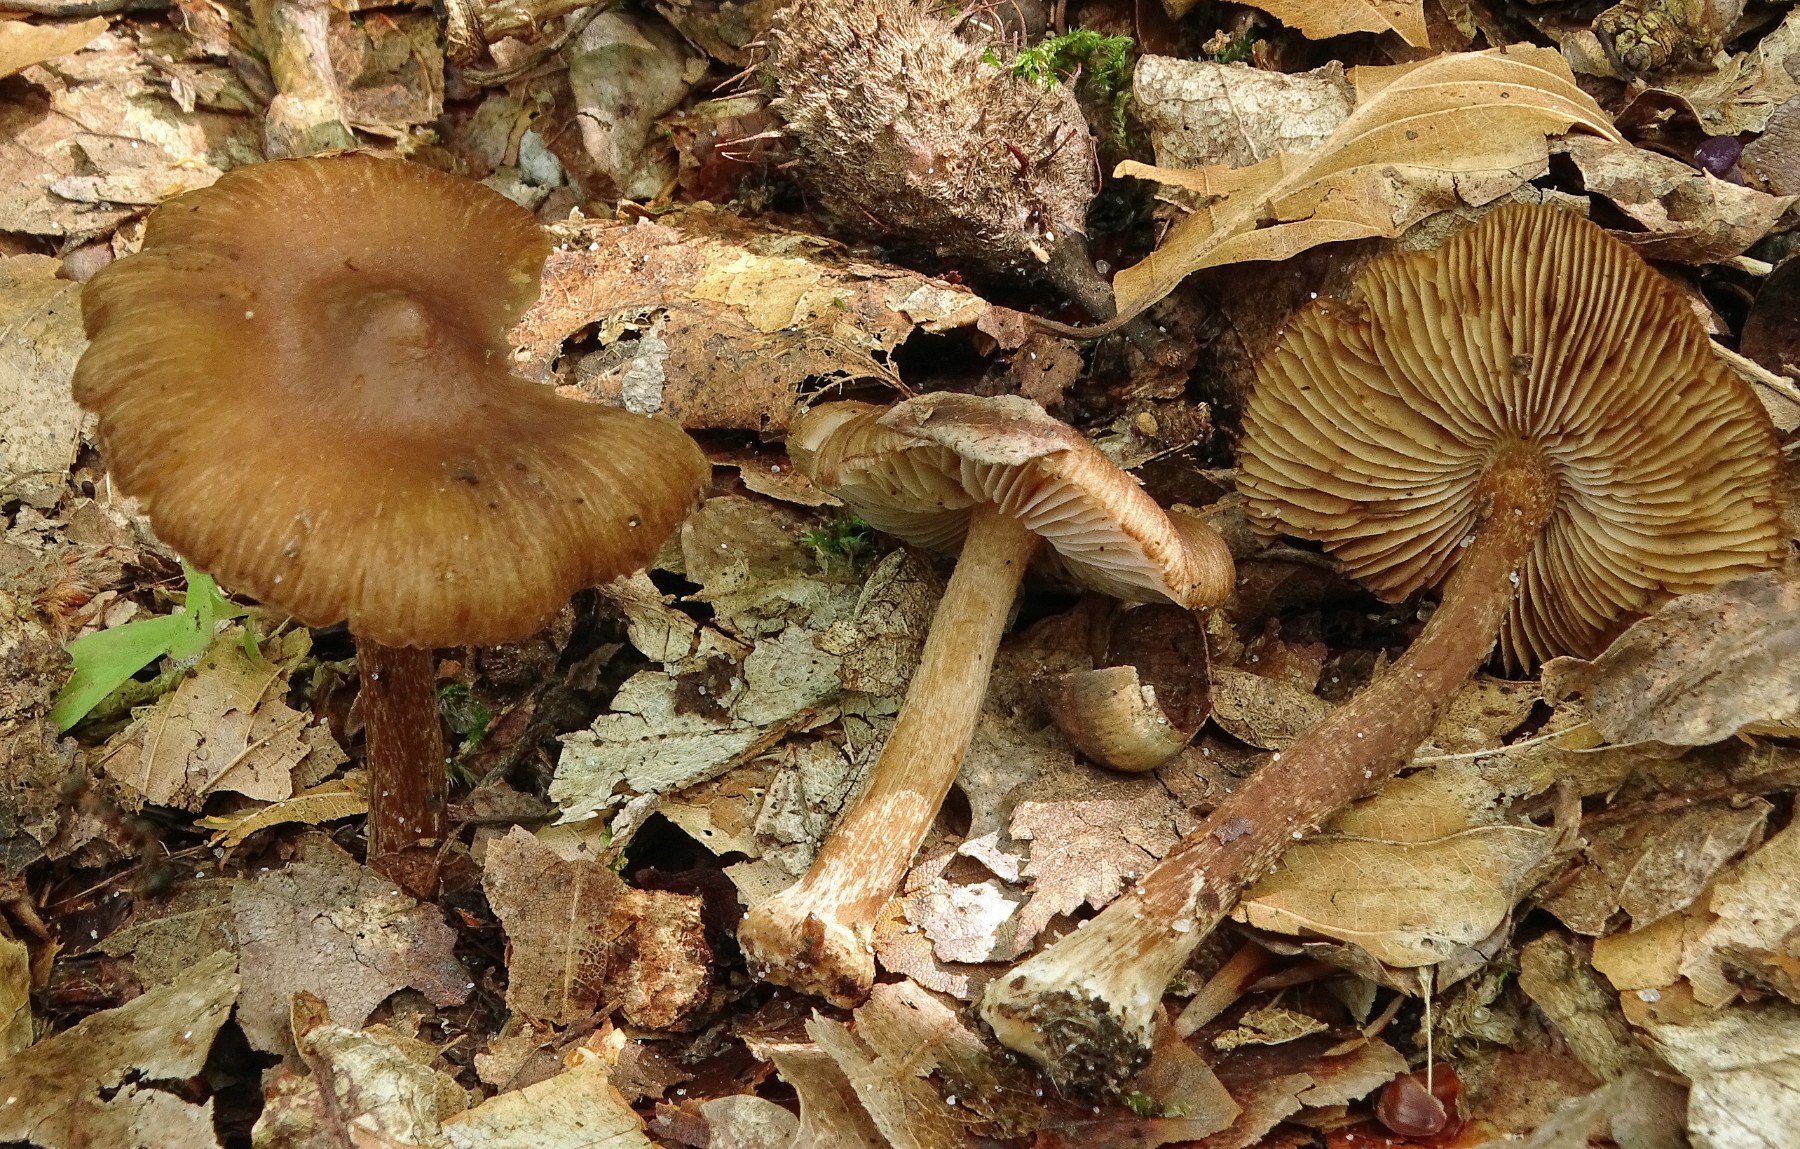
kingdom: Fungi
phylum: Basidiomycota
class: Agaricomycetes
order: Agaricales
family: Inocybaceae
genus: Inocybe
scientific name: Inocybe napipes
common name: roeknoldet trævlhat
